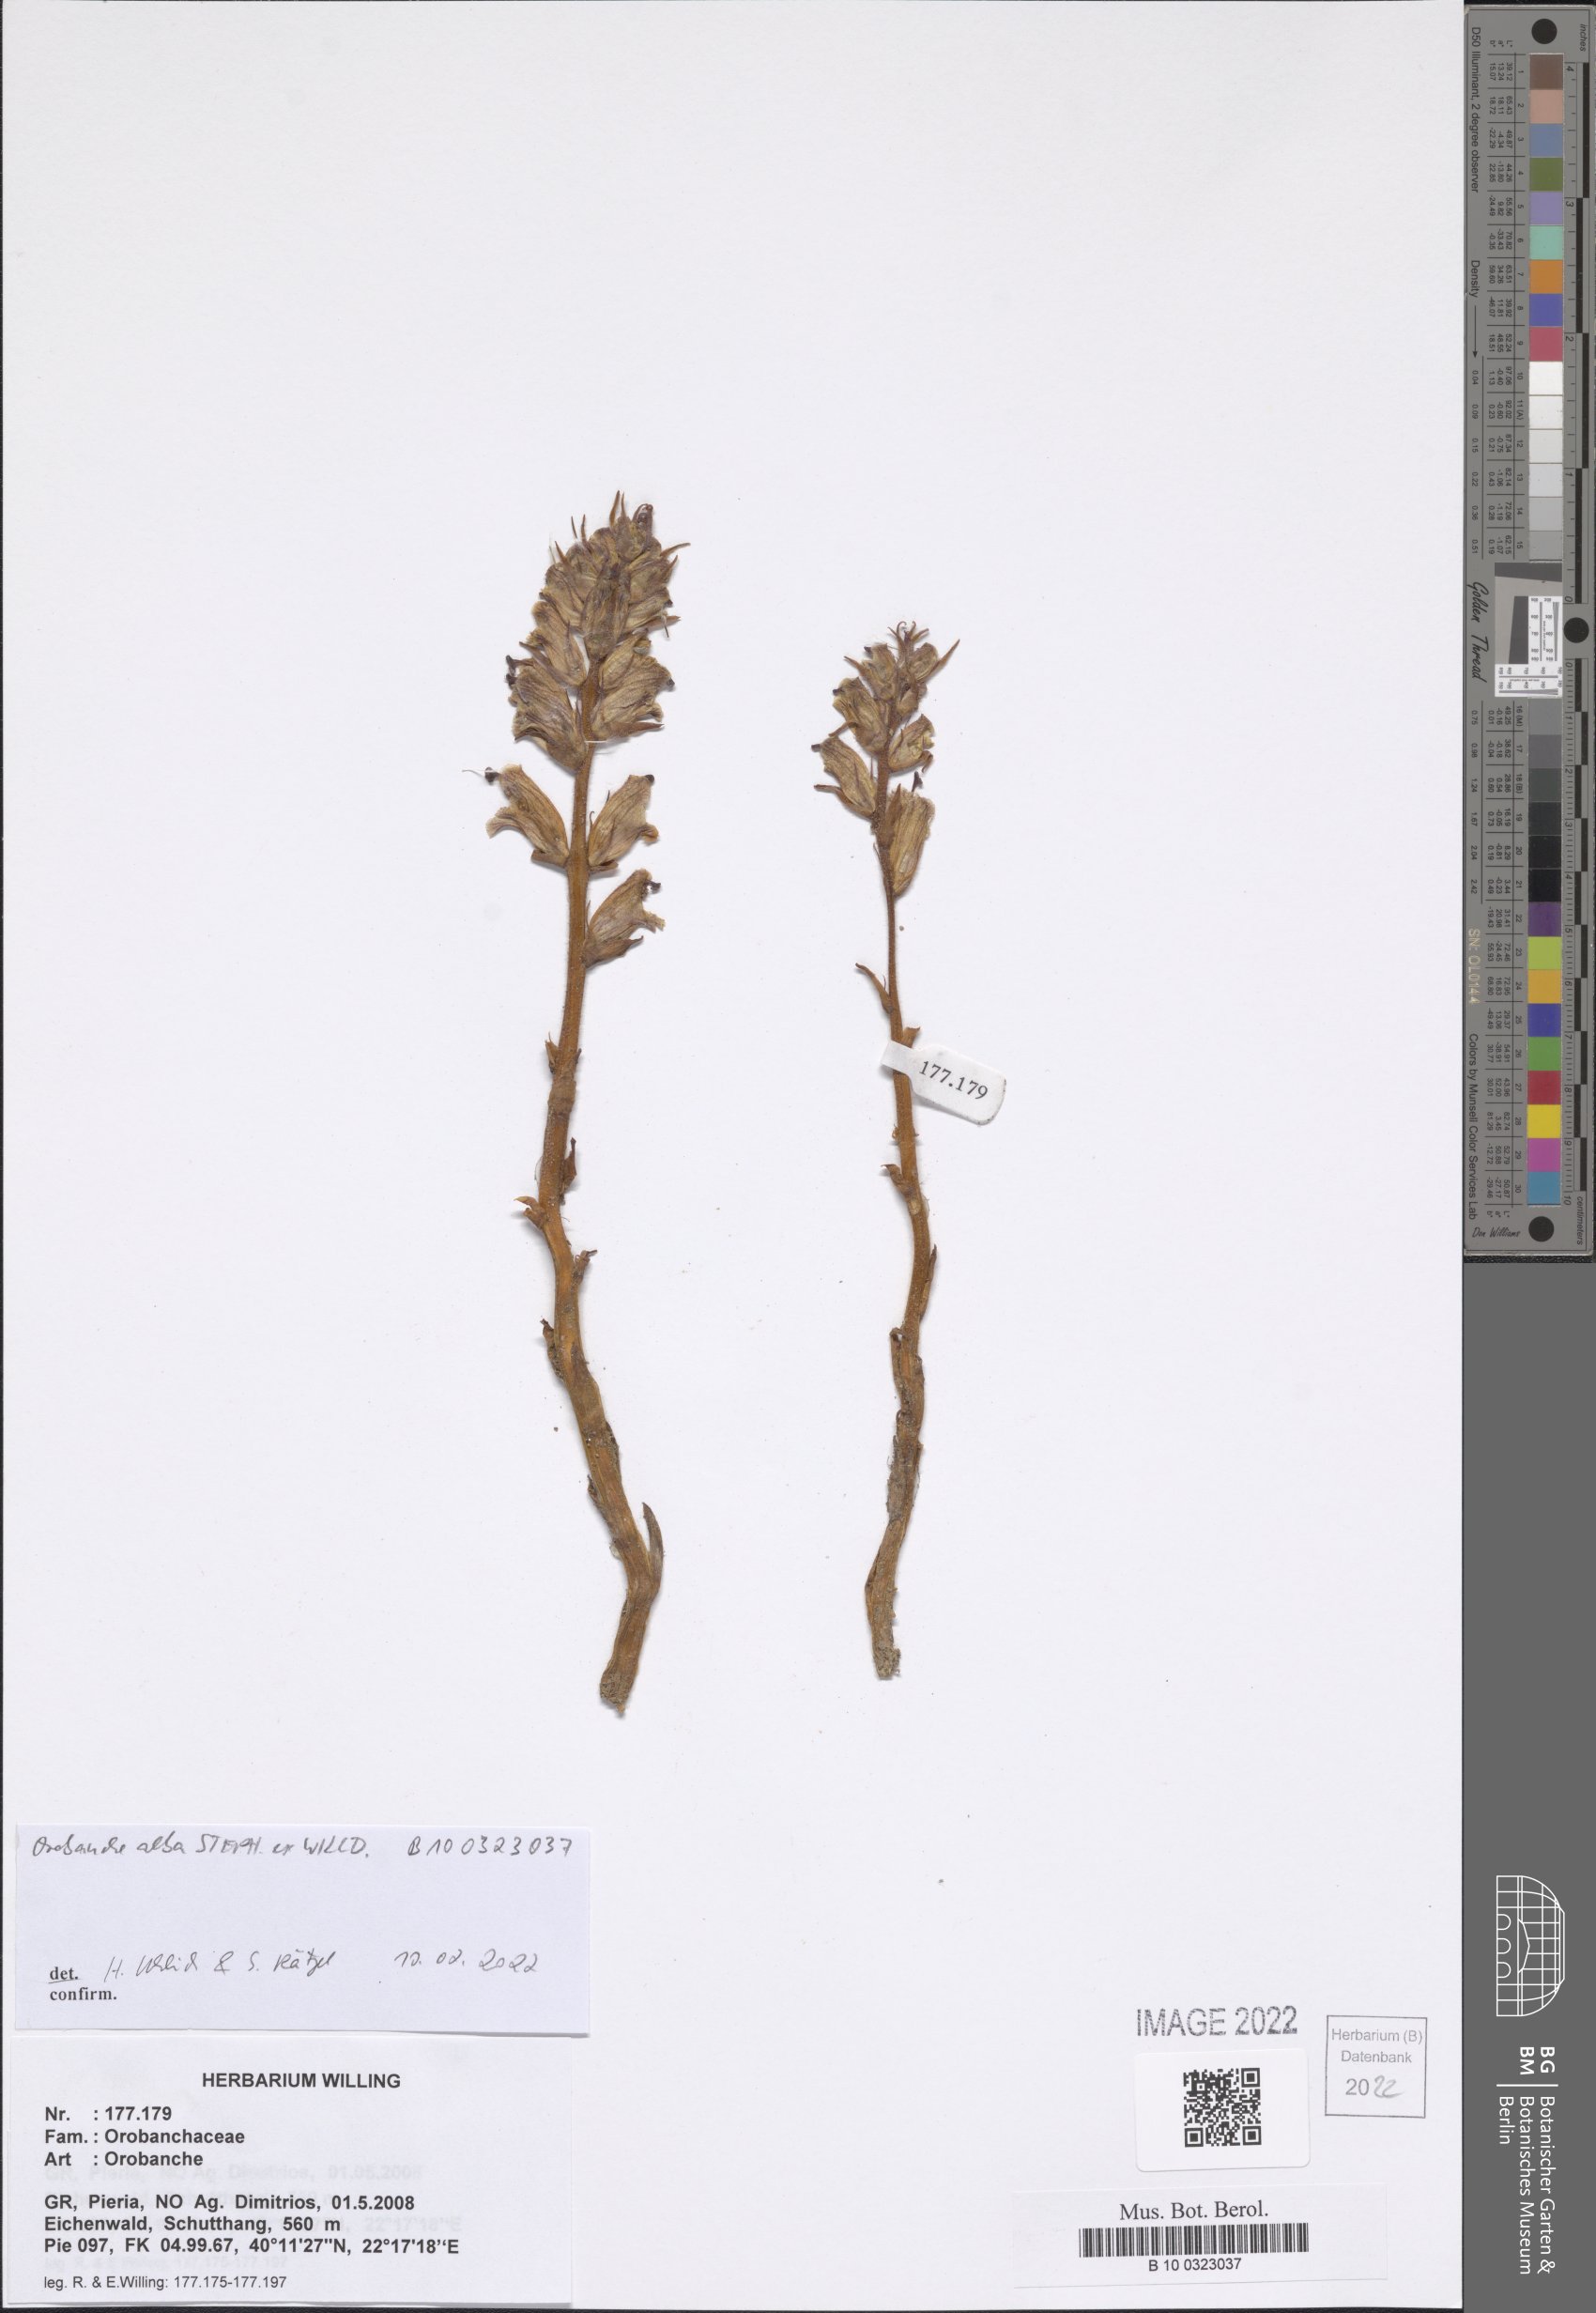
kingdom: Plantae
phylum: Tracheophyta
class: Magnoliopsida
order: Lamiales
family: Orobanchaceae
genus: Orobanche
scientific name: Orobanche alba
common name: Thyme broomrape
